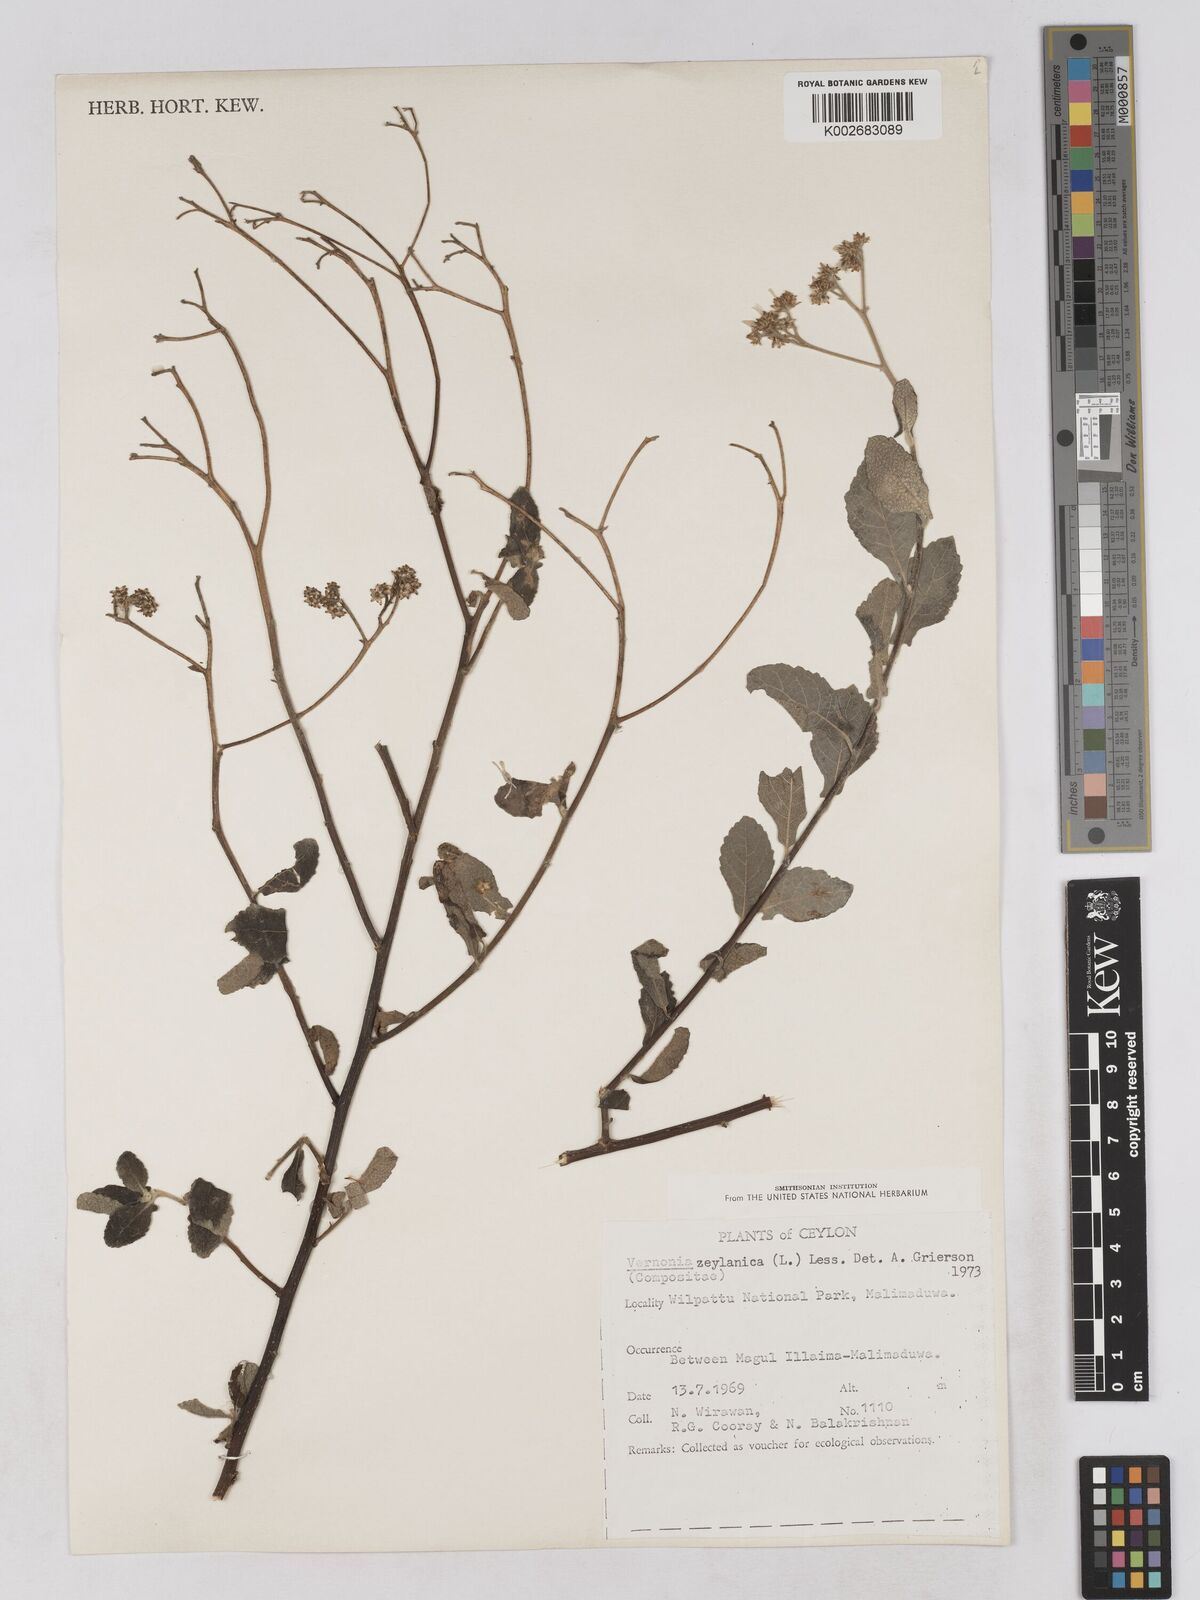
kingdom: Plantae
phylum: Tracheophyta
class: Magnoliopsida
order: Asterales
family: Asteraceae
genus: Jeffreycia
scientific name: Jeffreycia zeylanica
